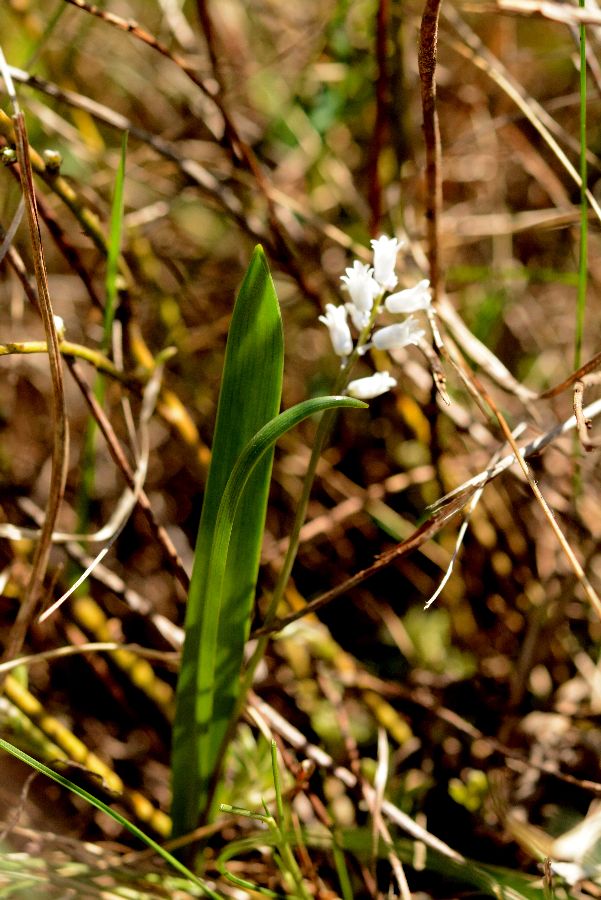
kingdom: Plantae
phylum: Tracheophyta
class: Liliopsida
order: Asparagales
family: Asparagaceae
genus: Hyacinthella
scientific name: Hyacinthella leucophaea
